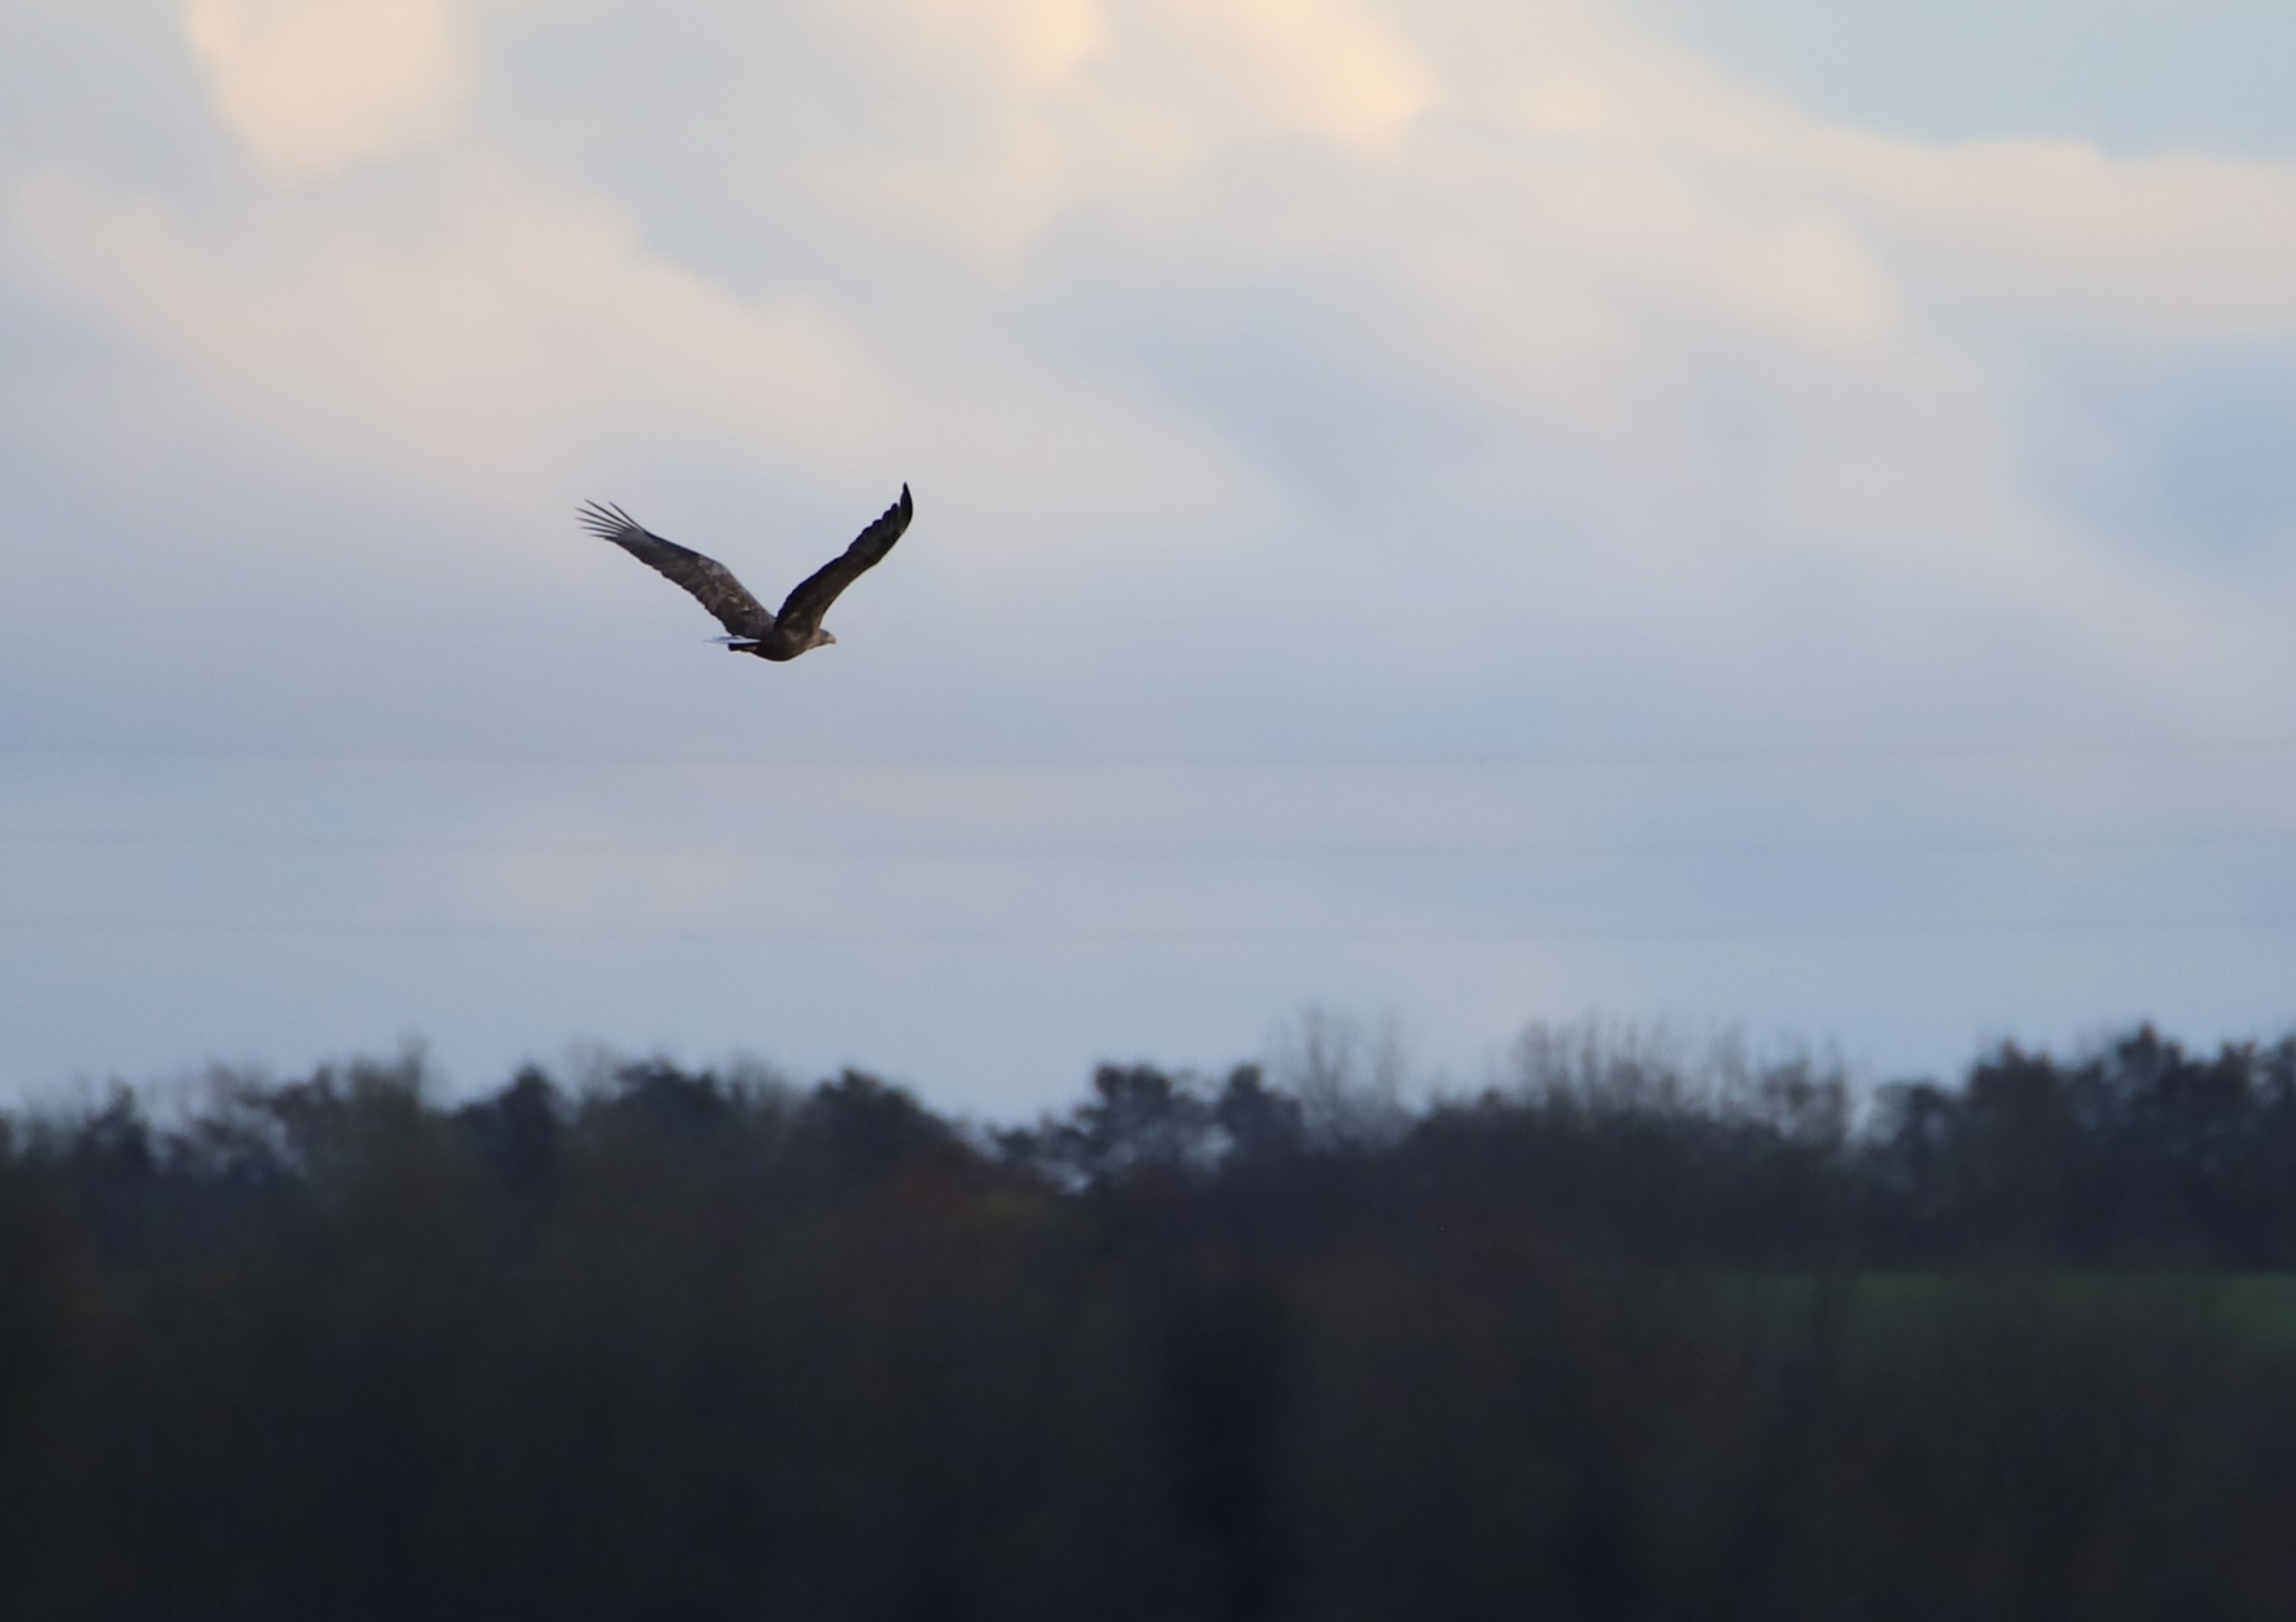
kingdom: Animalia
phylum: Chordata
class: Aves
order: Accipitriformes
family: Accipitridae
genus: Haliaeetus
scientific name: Haliaeetus albicilla
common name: Havørn
